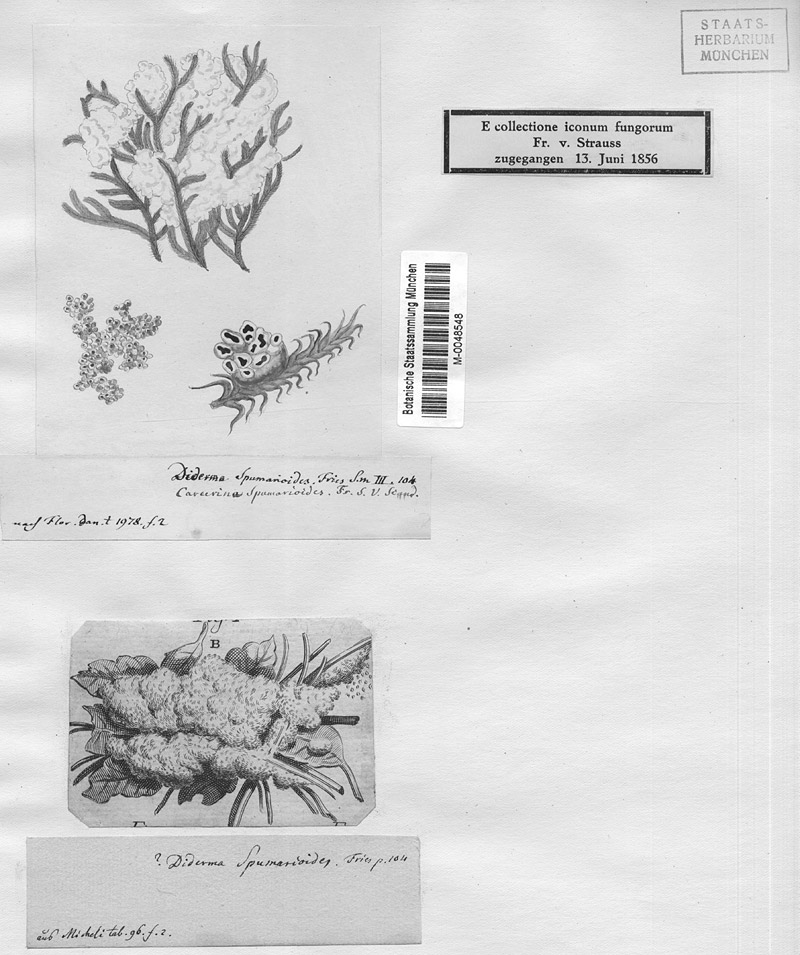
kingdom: Protozoa
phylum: Mycetozoa
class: Myxomycetes
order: Physarales
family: Didymiaceae
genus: Diderma
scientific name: Diderma spumarioides
